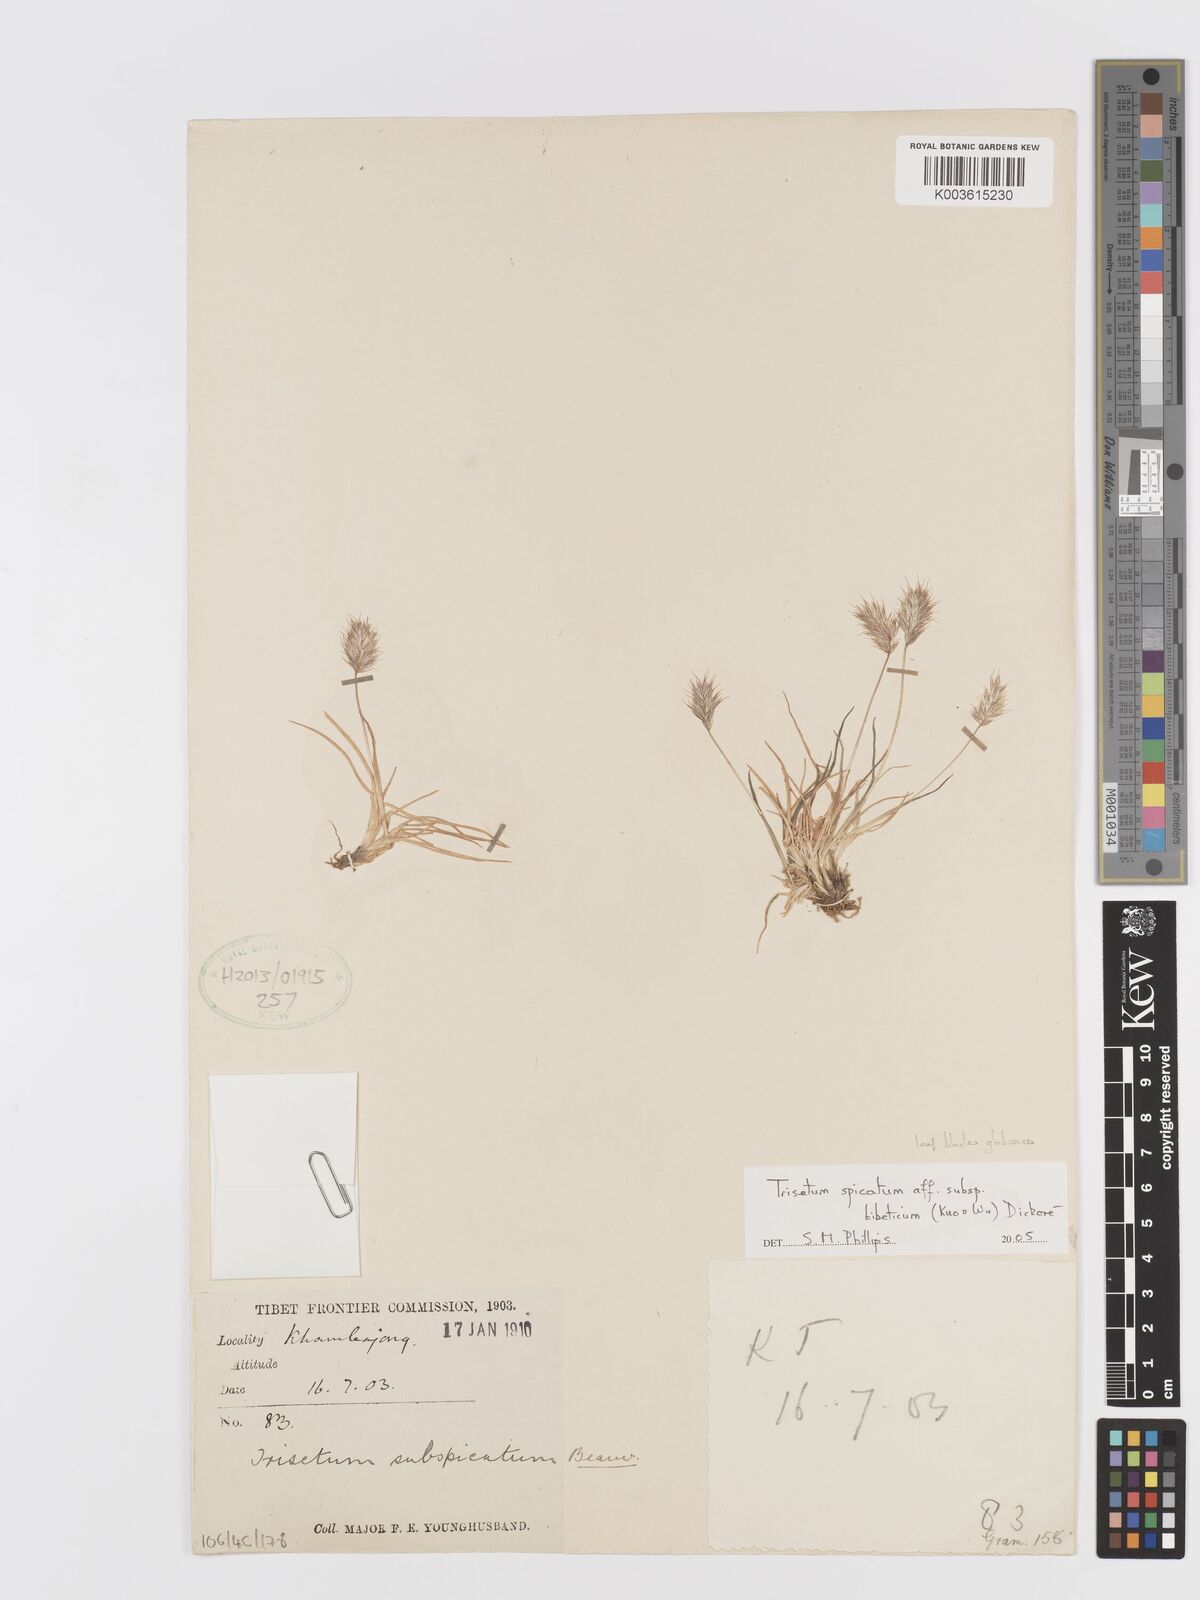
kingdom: Plantae
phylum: Tracheophyta
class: Liliopsida
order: Poales
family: Poaceae
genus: Koeleria
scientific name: Koeleria spicata
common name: Mountain trisetum
